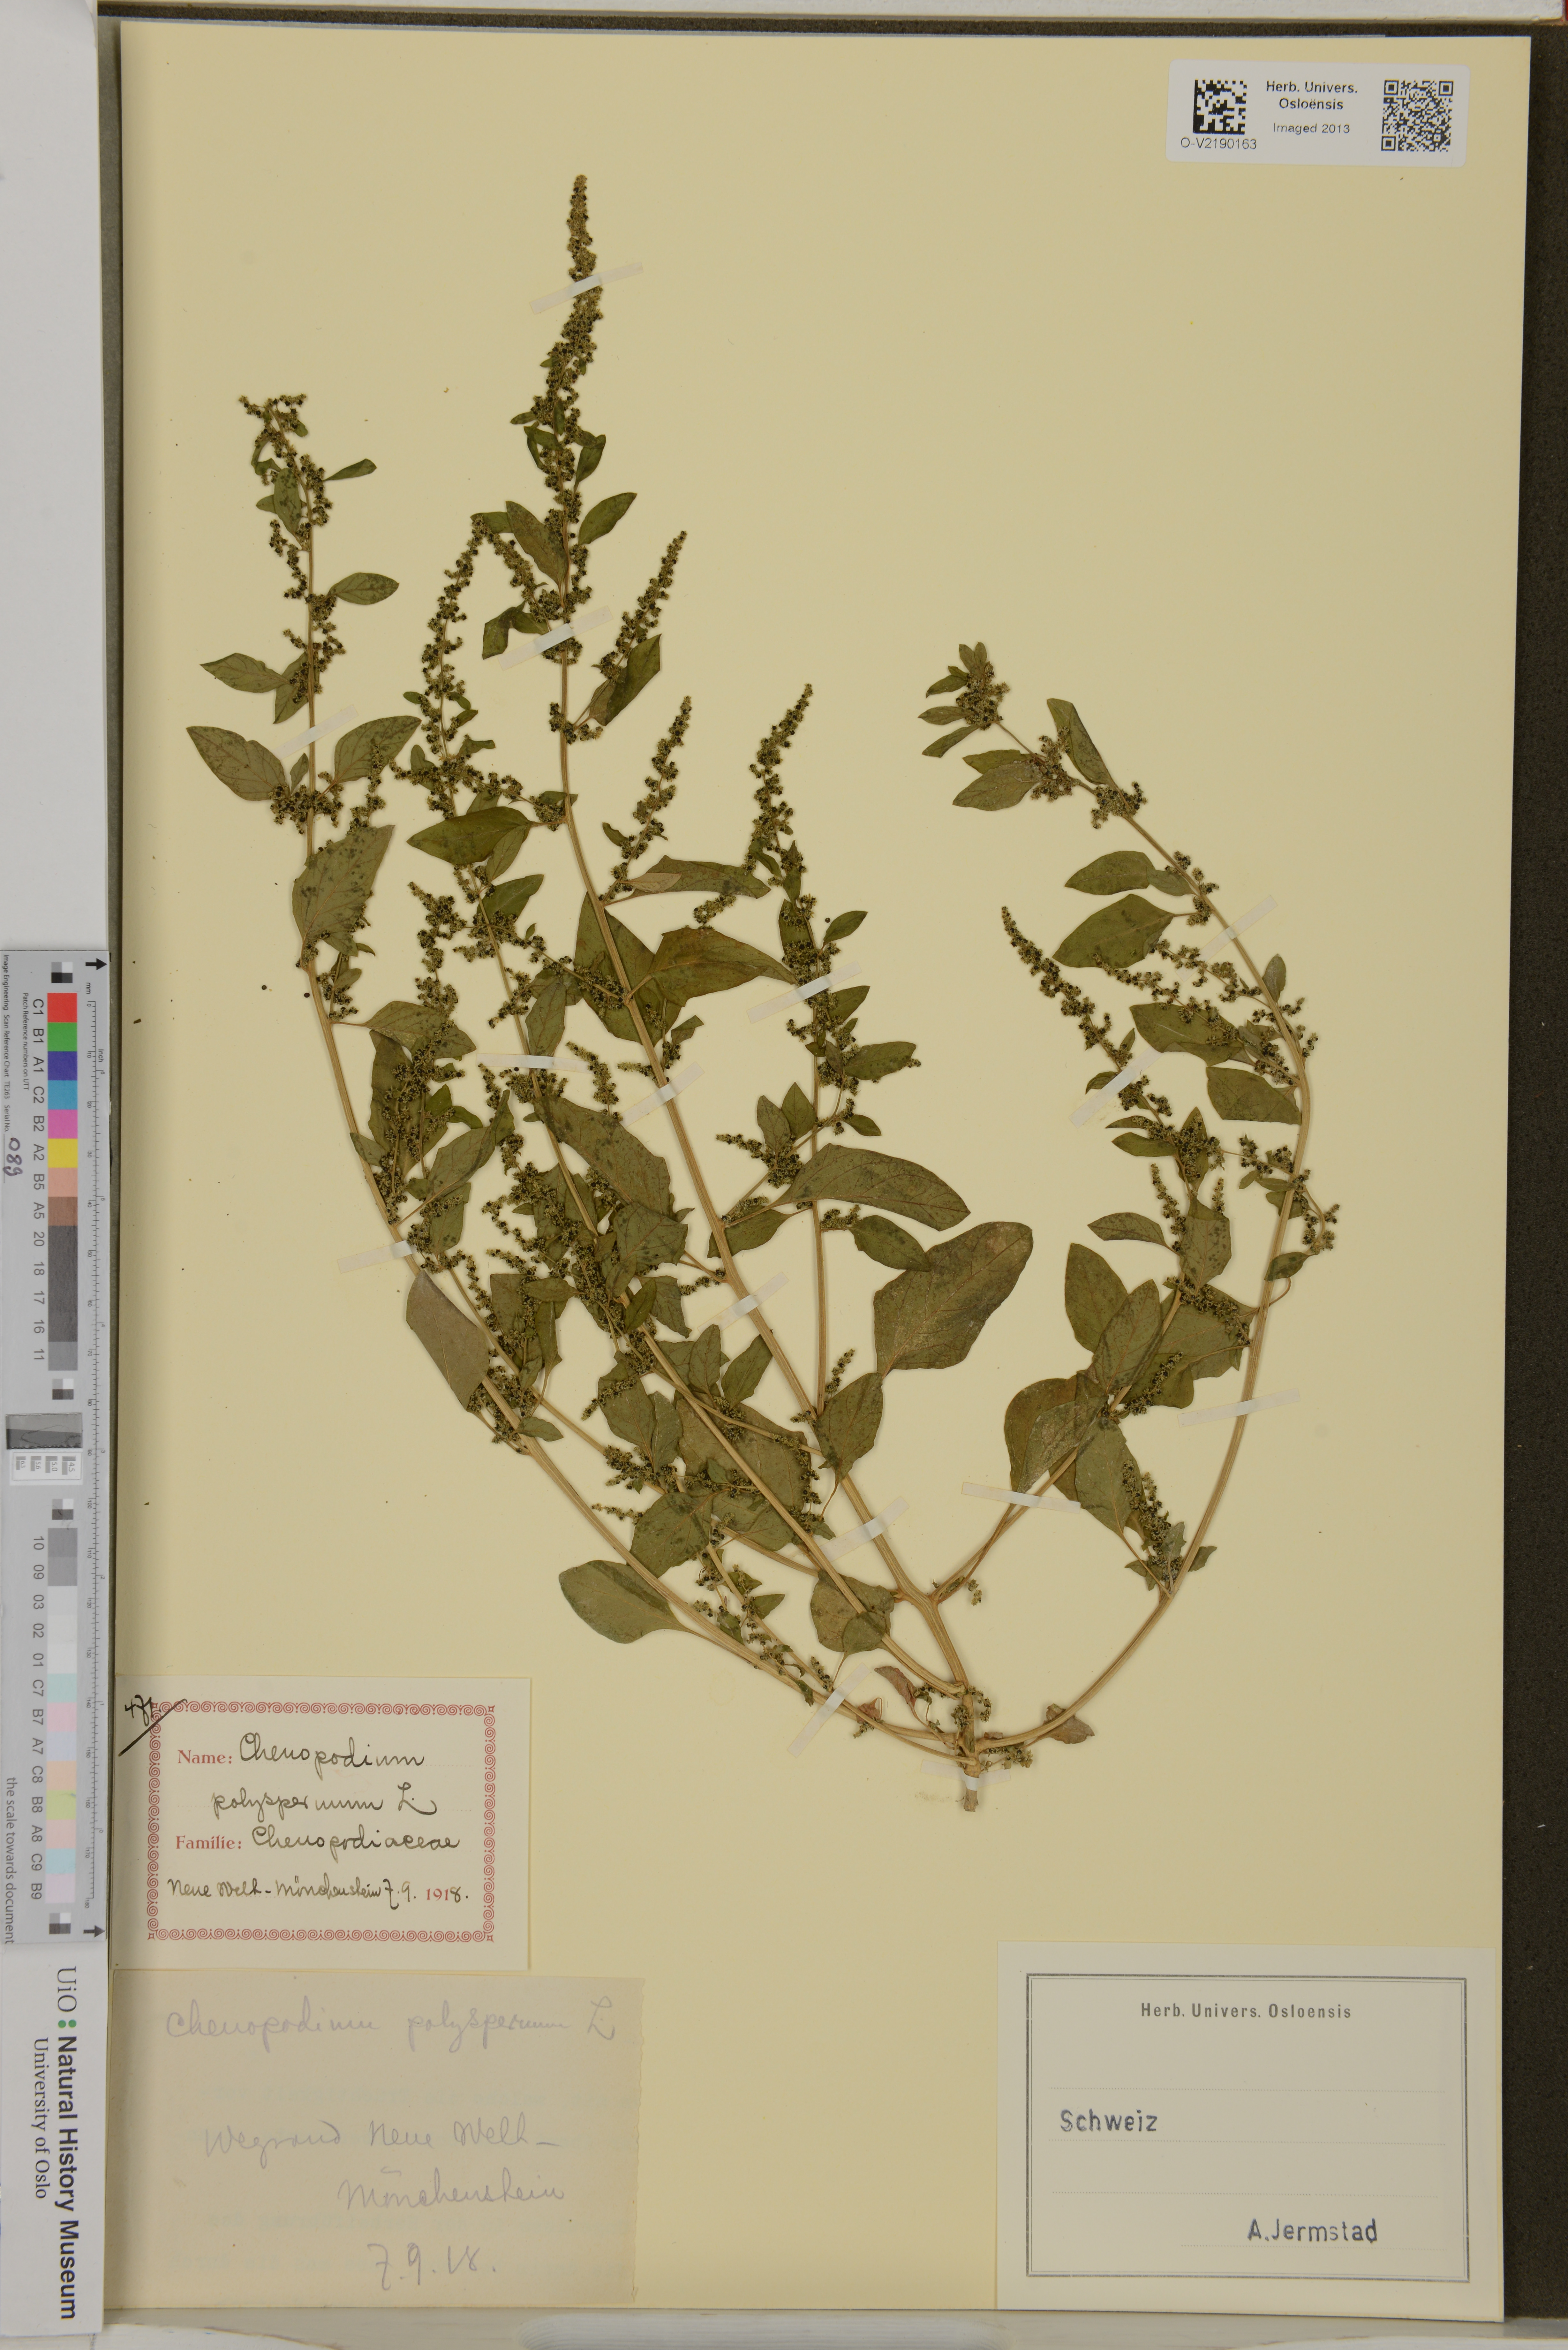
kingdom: Plantae
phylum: Tracheophyta
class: Magnoliopsida
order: Caryophyllales
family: Amaranthaceae
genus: Lipandra
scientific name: Lipandra polysperma
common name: Many-seed goosefoot
